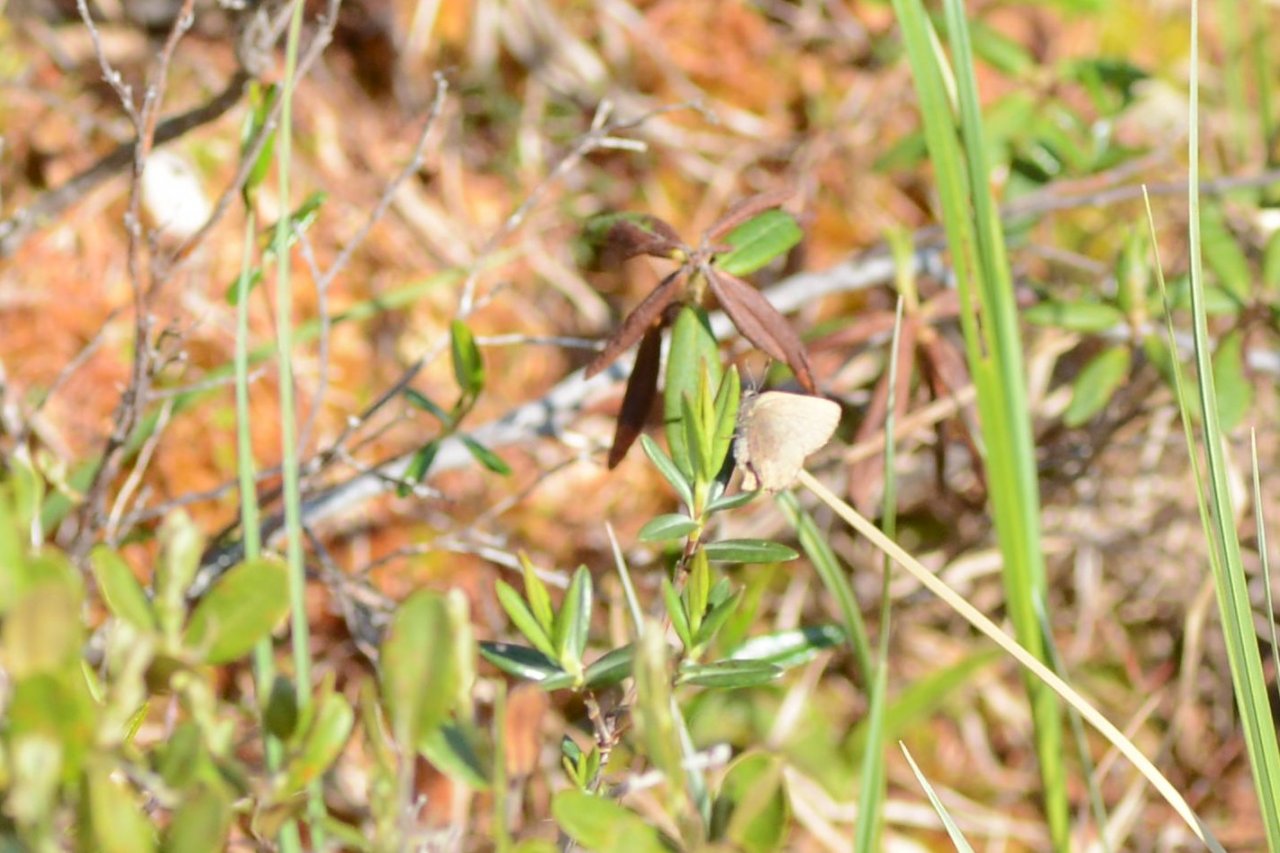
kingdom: Animalia
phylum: Arthropoda
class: Insecta
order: Lepidoptera
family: Lycaenidae
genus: Incisalia
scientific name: Incisalia irioides
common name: Brown Elfin
